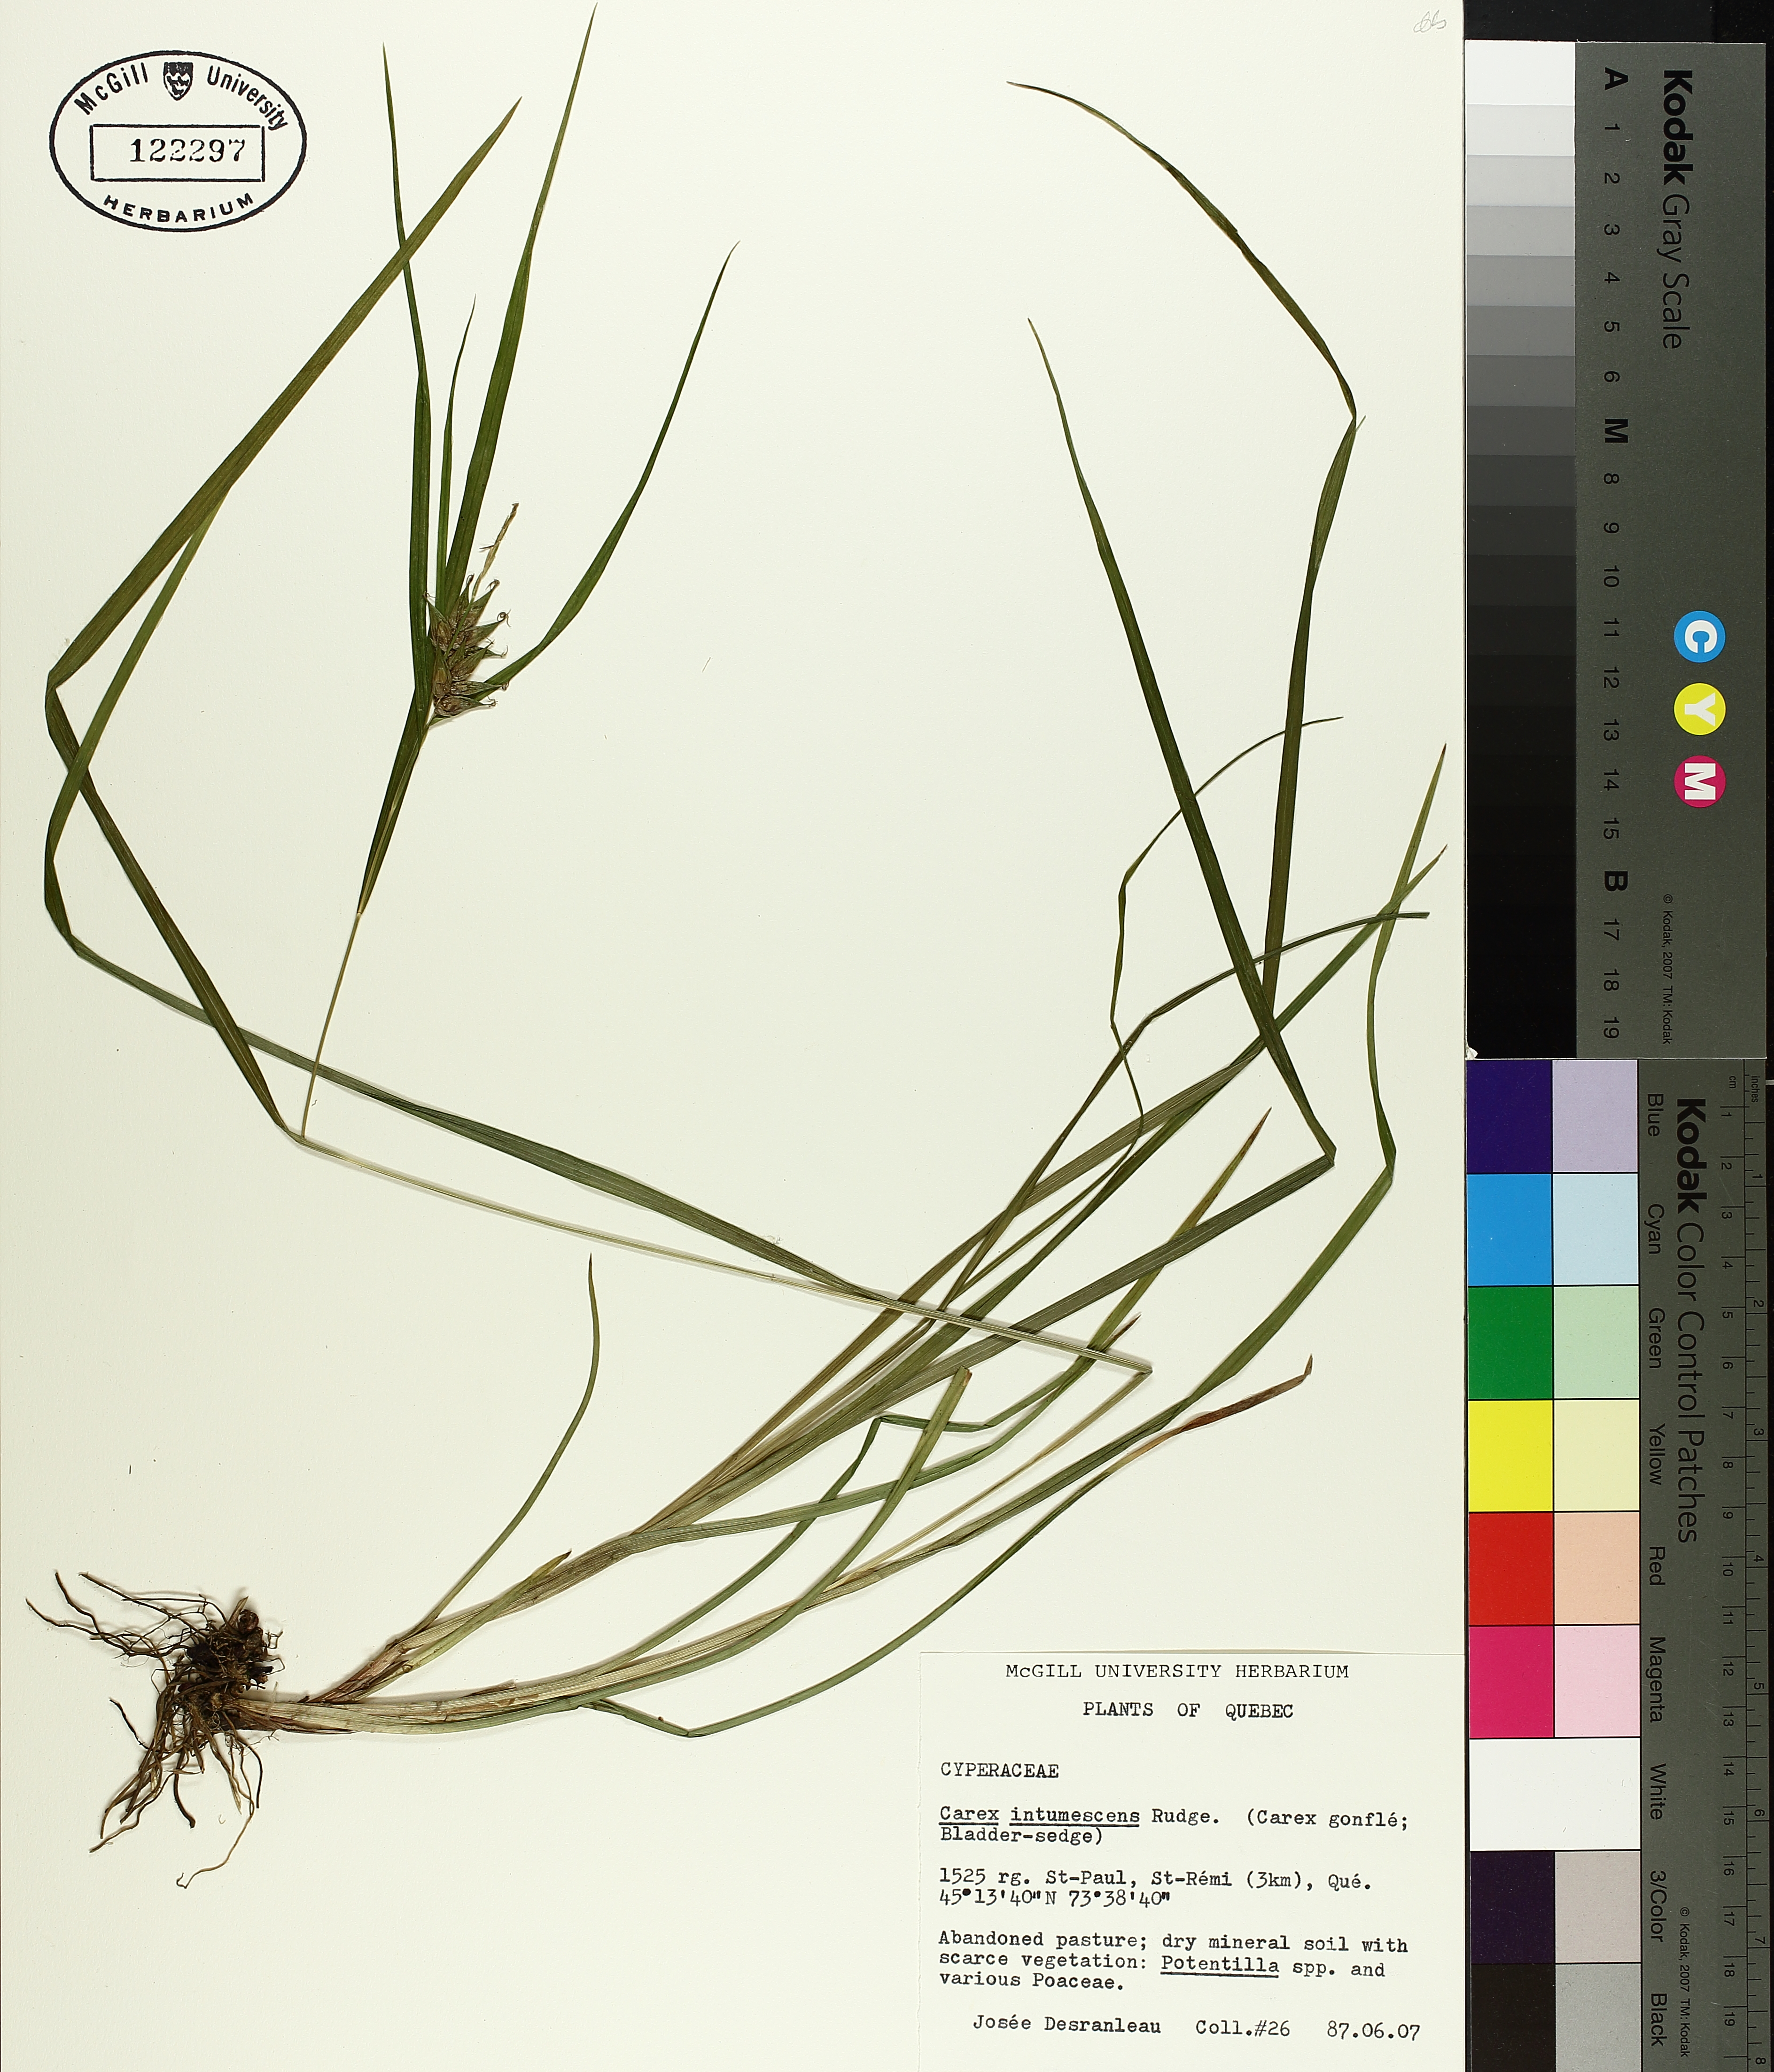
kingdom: Plantae
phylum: Tracheophyta
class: Liliopsida
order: Poales
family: Cyperaceae
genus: Carex
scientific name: Carex intumescens
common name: Greater bladder sedge
